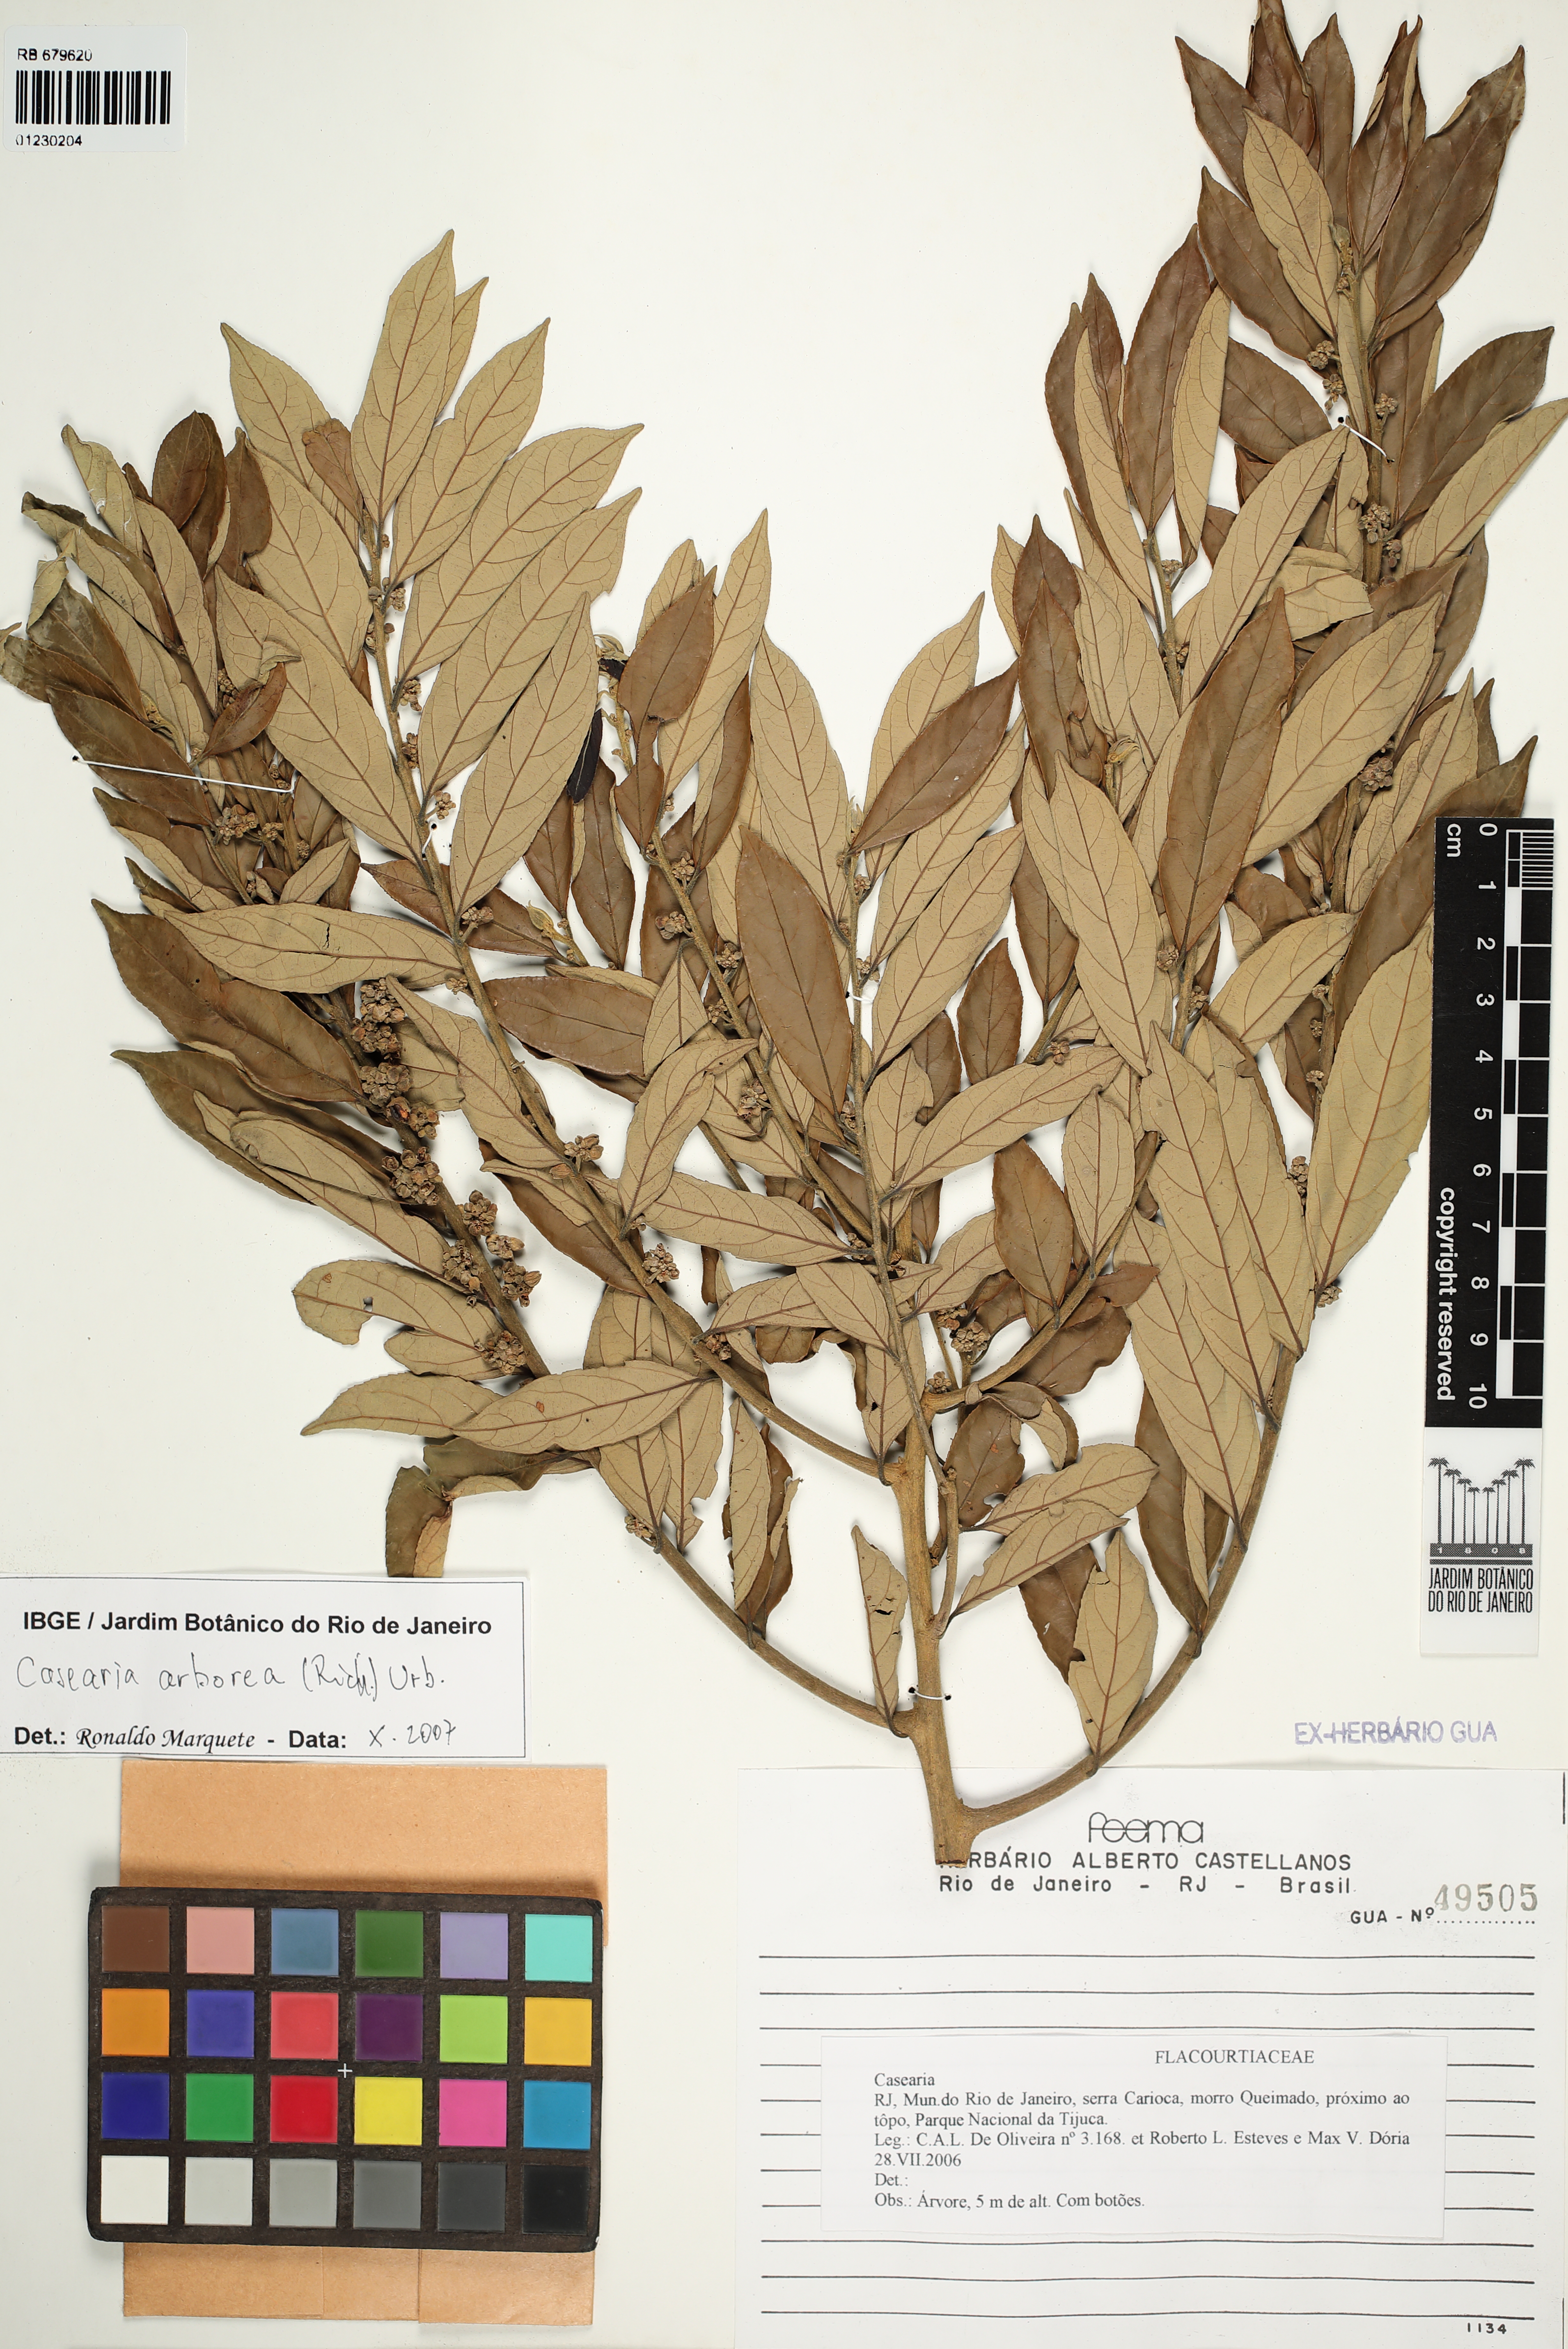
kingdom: Plantae
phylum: Tracheophyta
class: Magnoliopsida
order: Malpighiales
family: Salicaceae
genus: Casearia
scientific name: Casearia arborea
